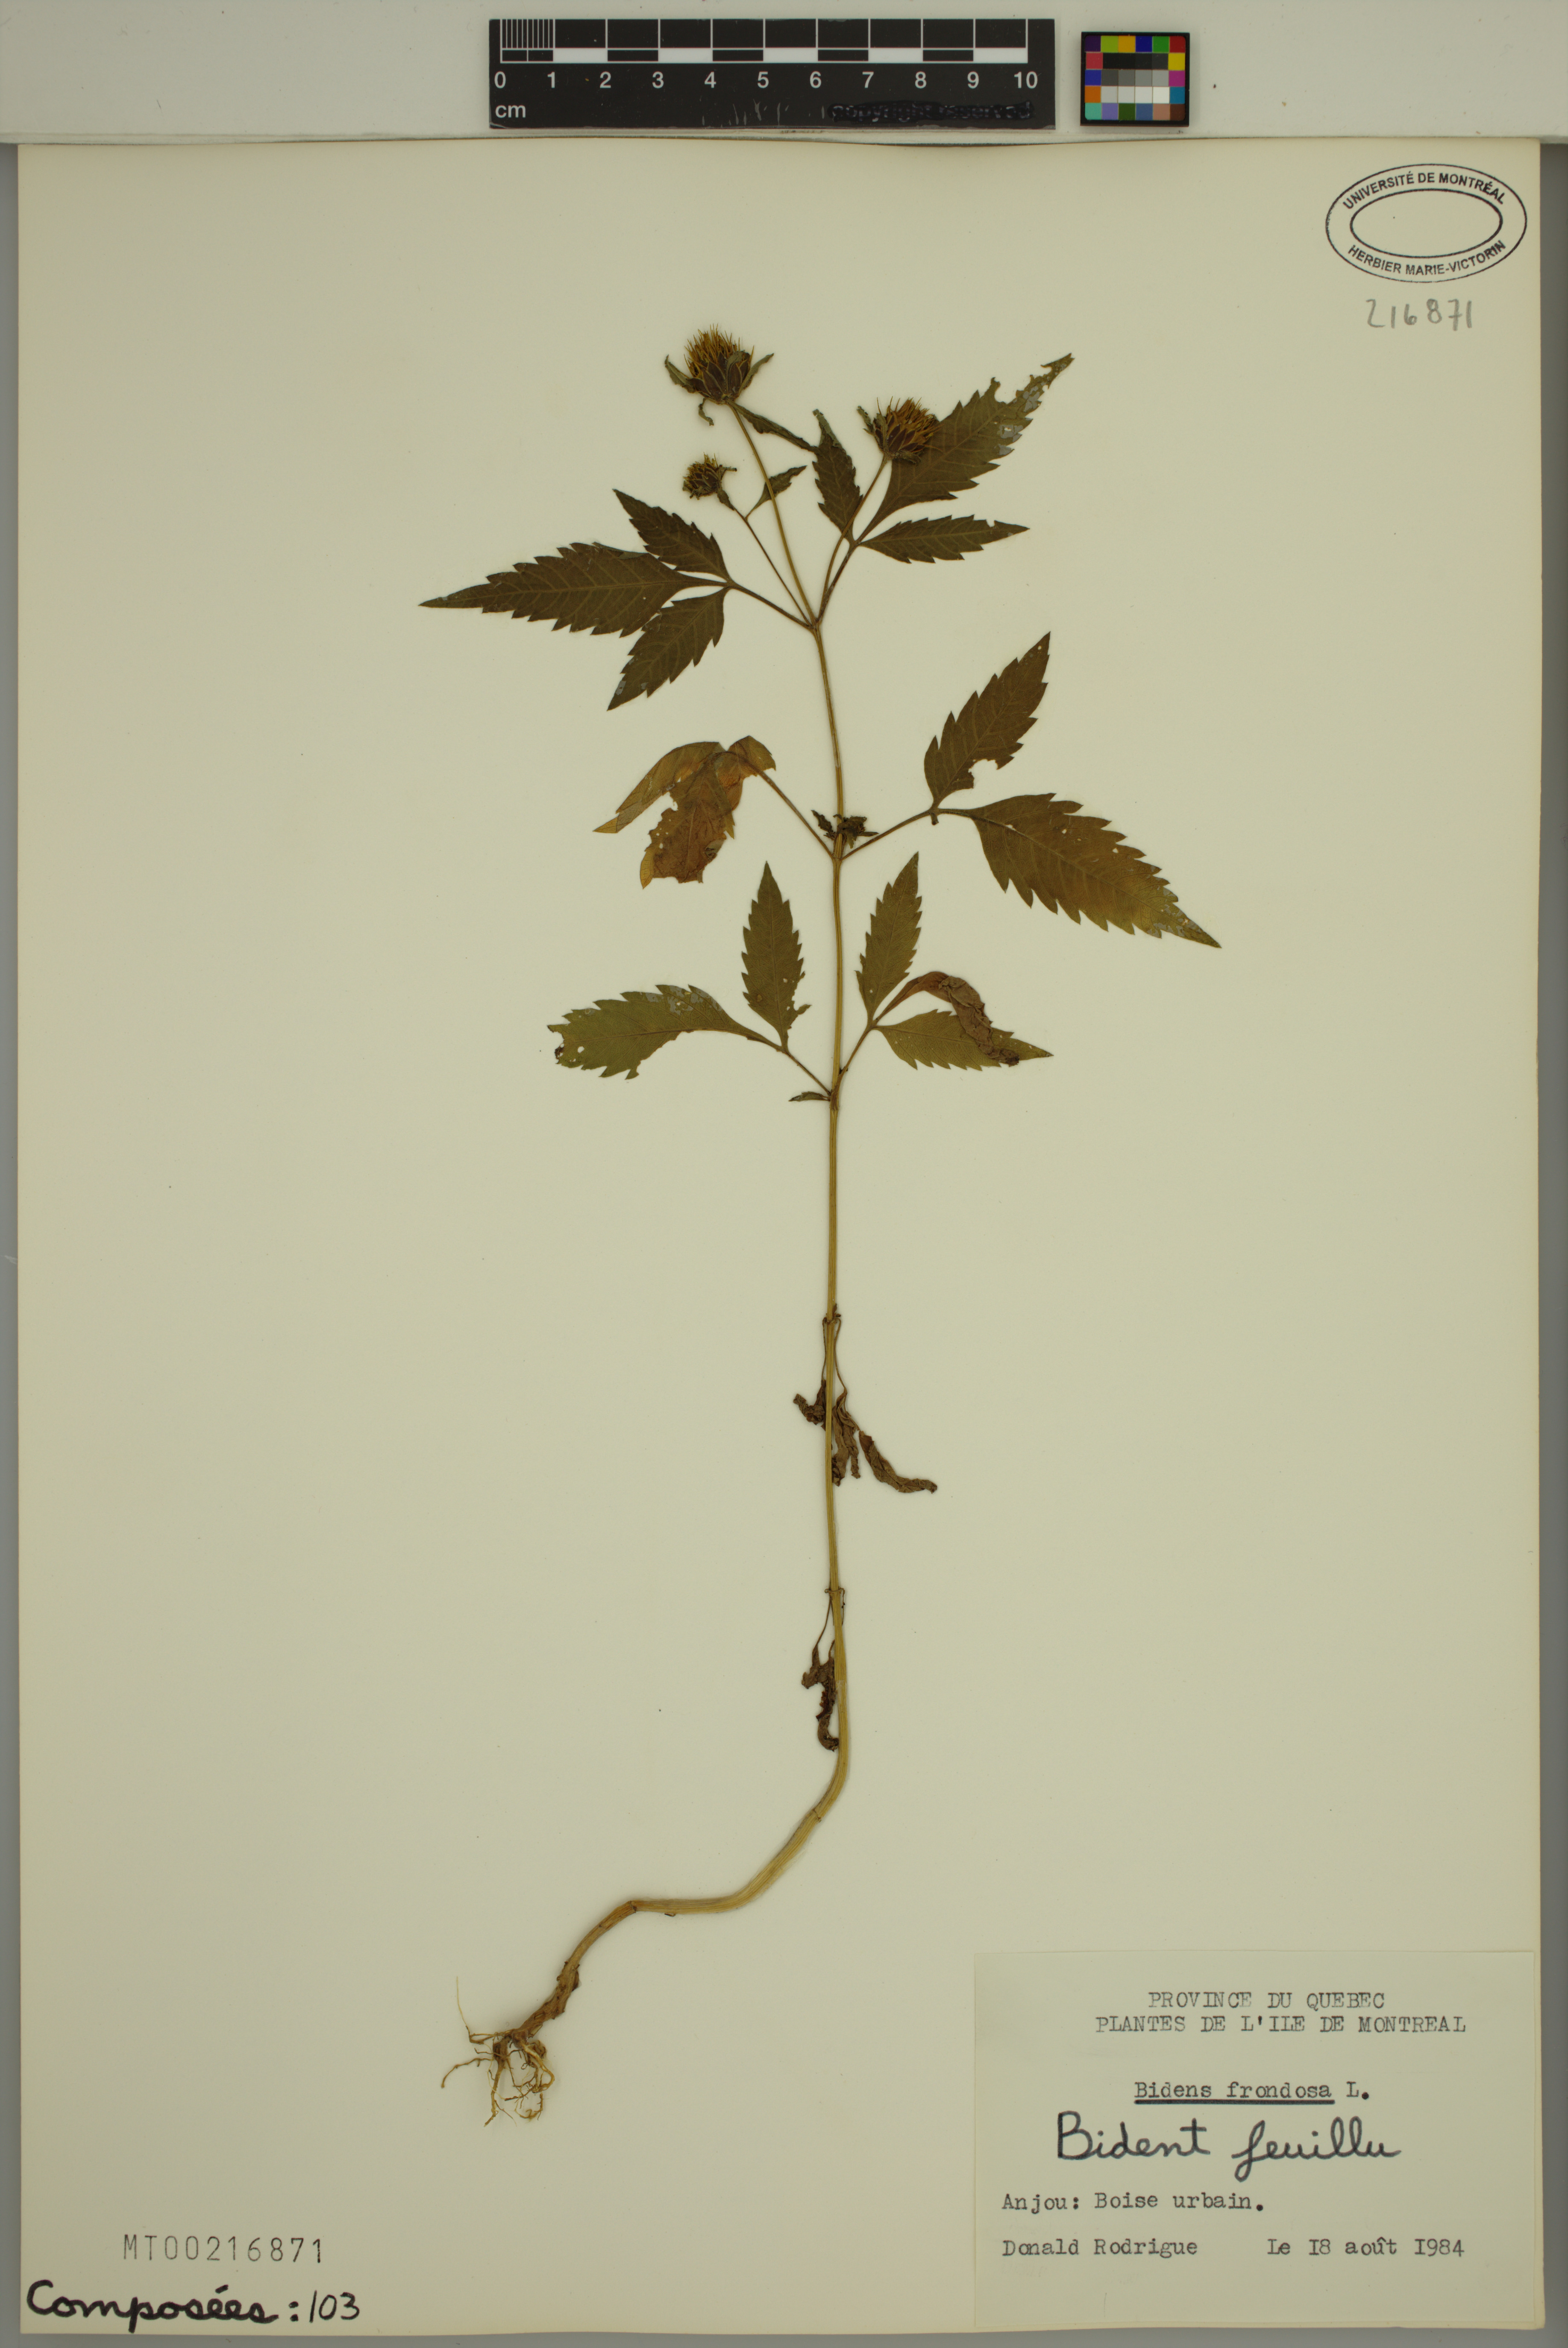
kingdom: Plantae
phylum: Tracheophyta
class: Magnoliopsida
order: Asterales
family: Asteraceae
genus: Bidens
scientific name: Bidens frondosa
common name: Beggarticks
